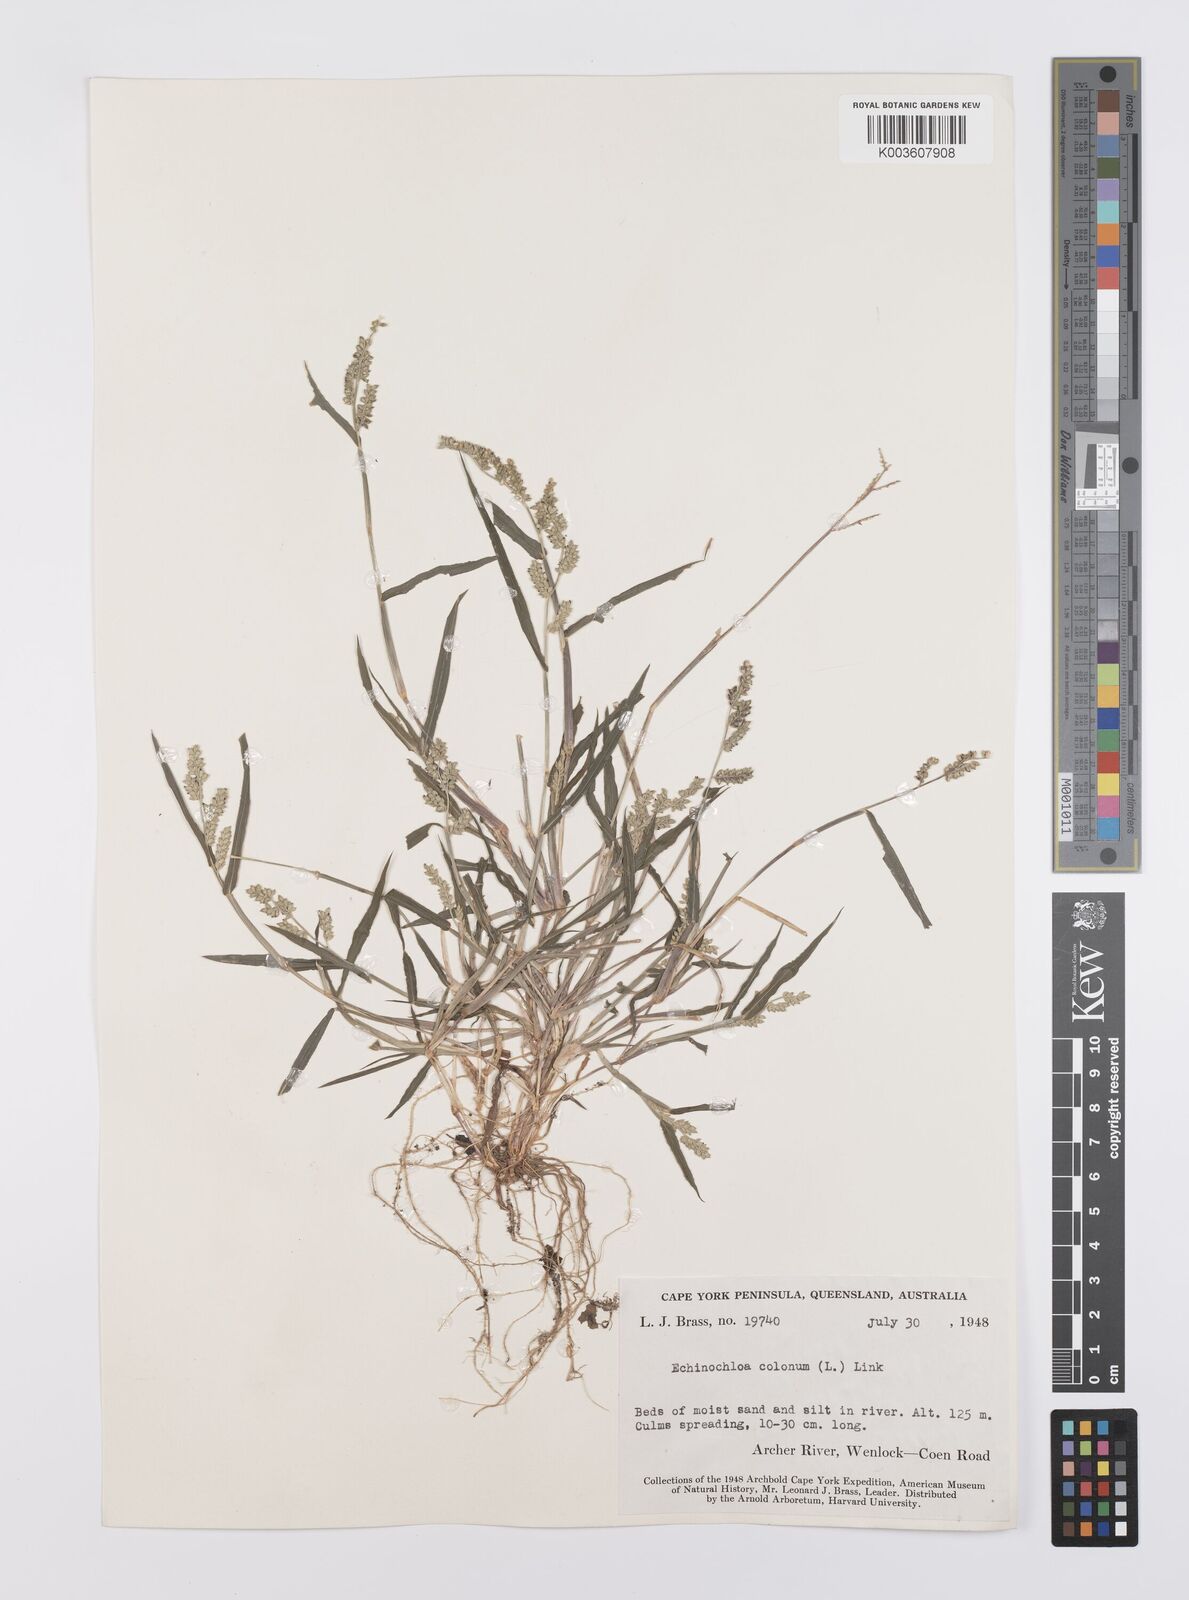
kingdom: Plantae
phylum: Tracheophyta
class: Liliopsida
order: Poales
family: Poaceae
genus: Echinochloa
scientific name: Echinochloa colonum
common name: Jungle rice
